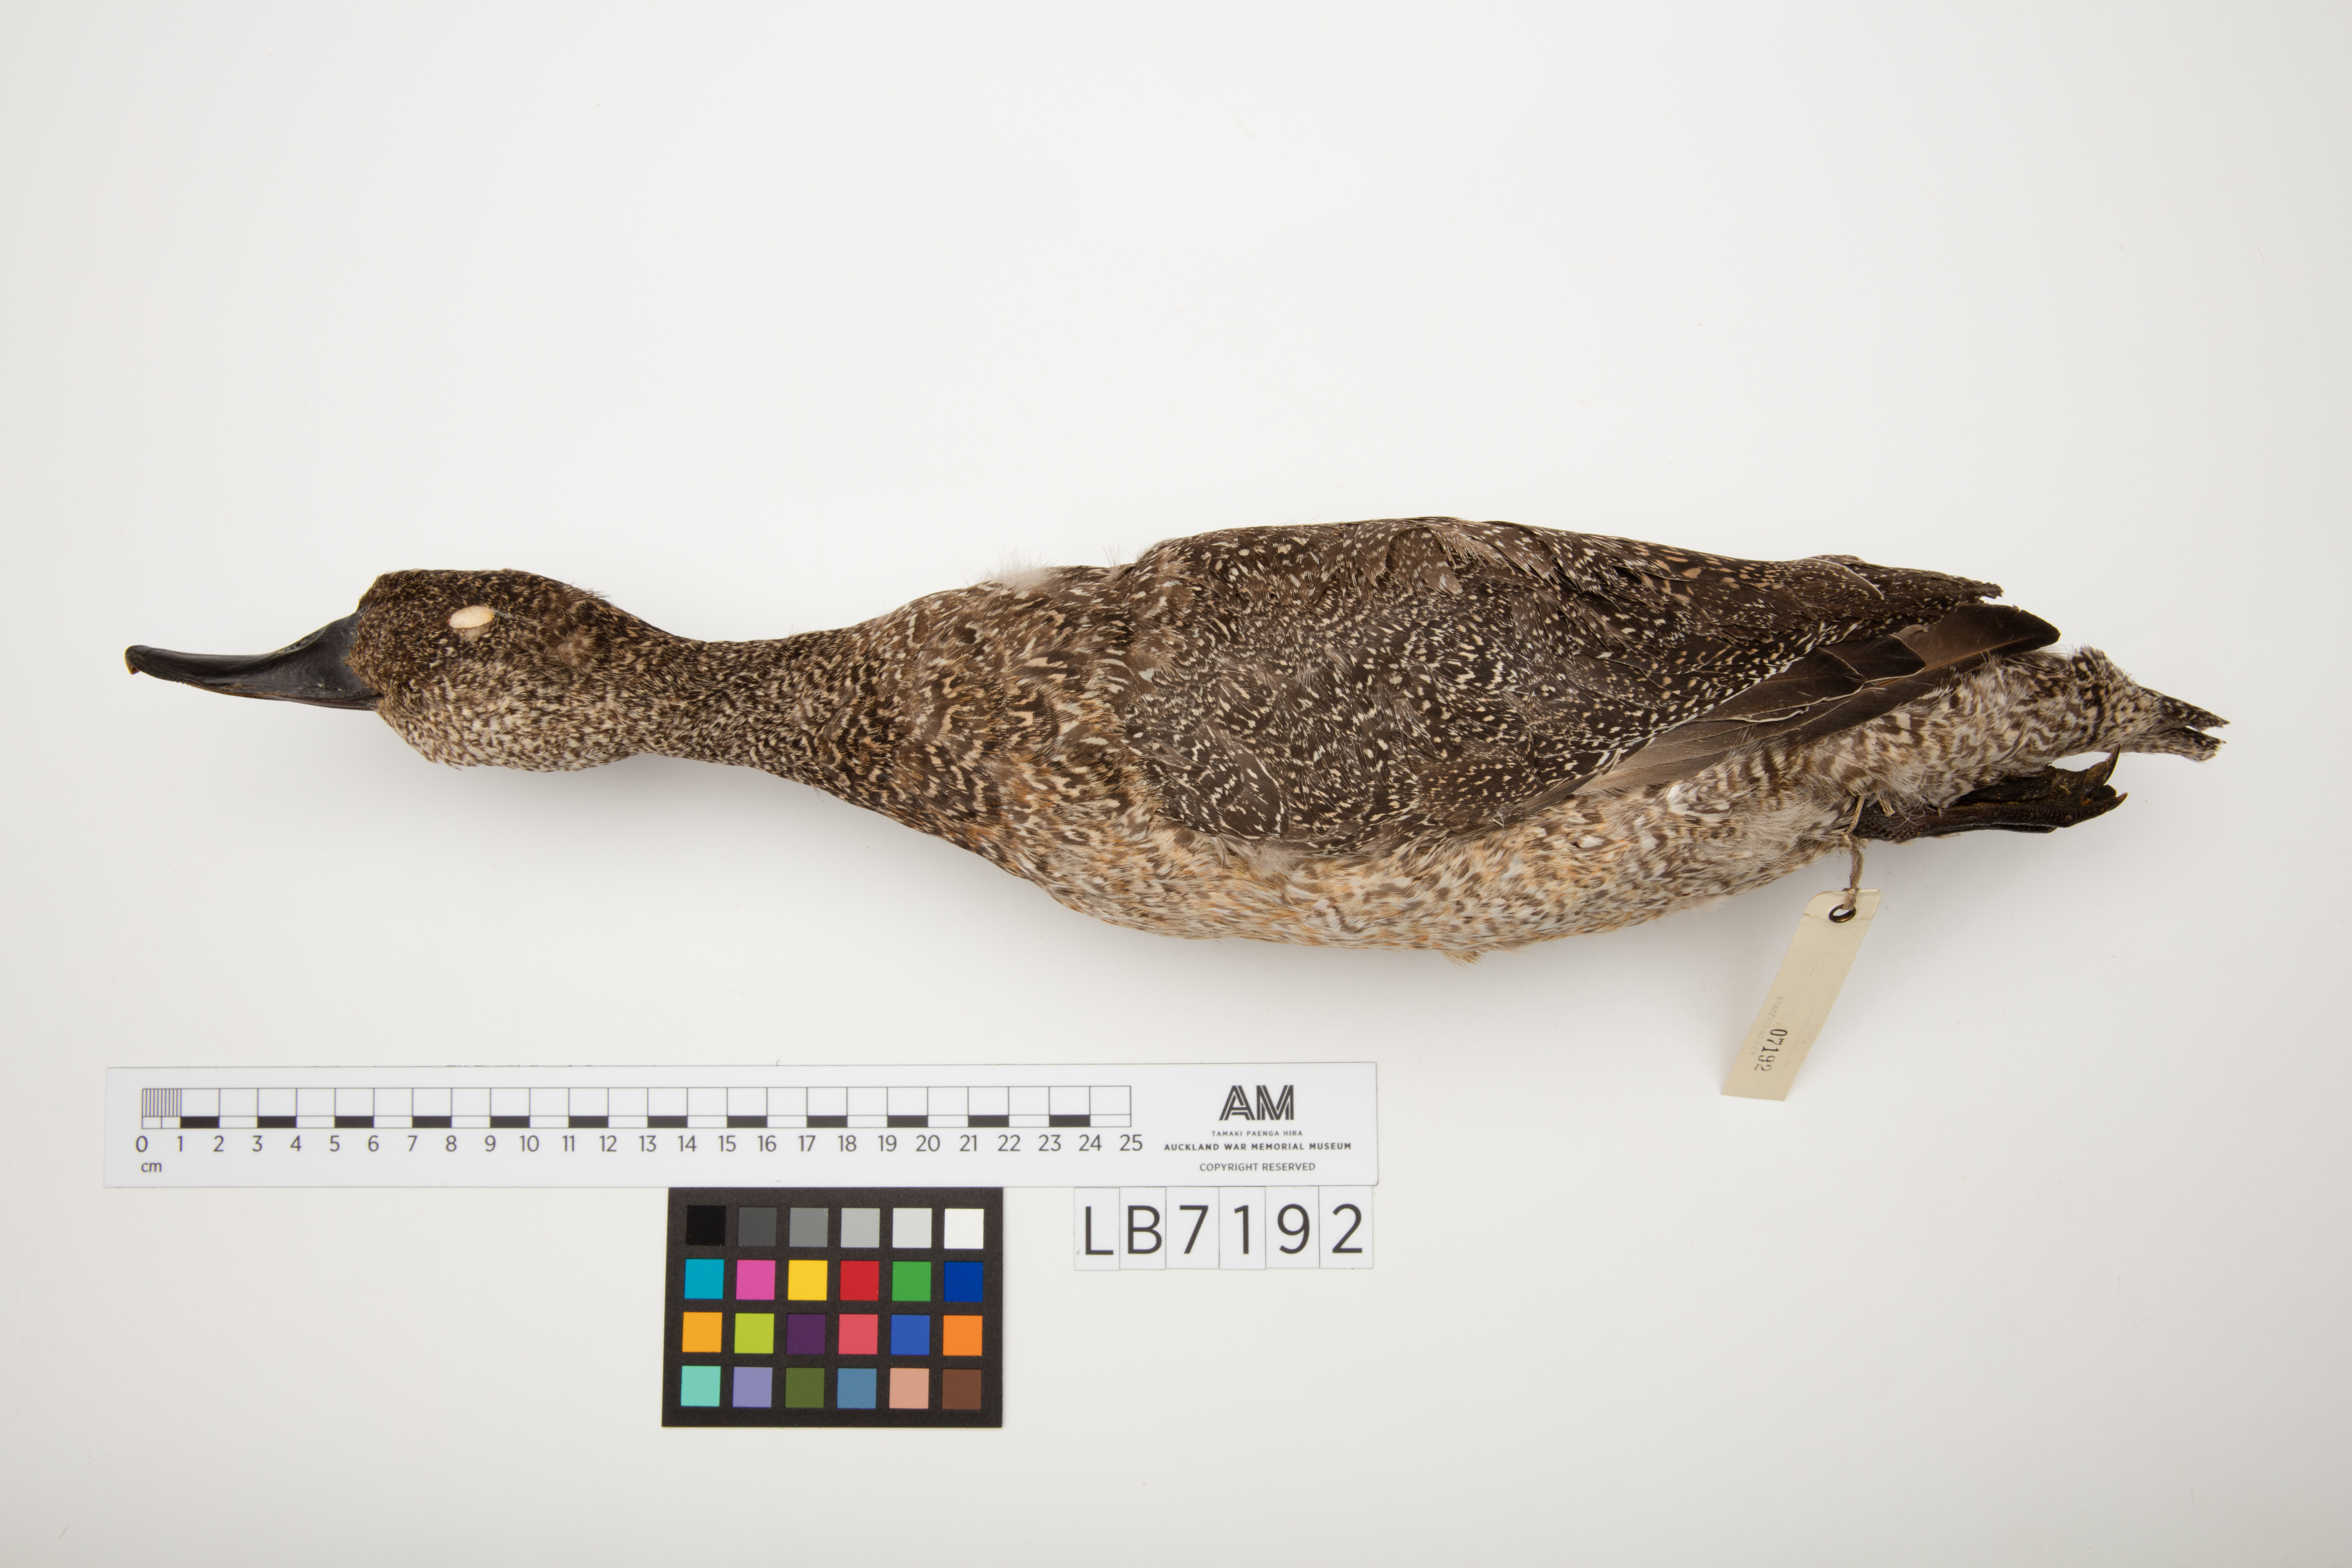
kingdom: Animalia
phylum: Chordata
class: Aves
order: Anseriformes
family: Anatidae
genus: Stictonetta
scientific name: Stictonetta naevosa
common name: Freckled duck
